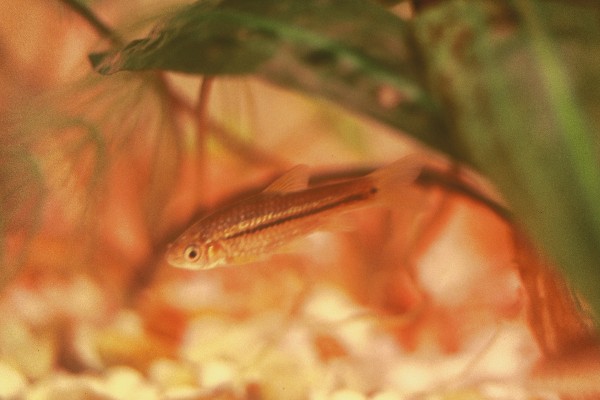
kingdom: Animalia
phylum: Chordata
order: Cypriniformes
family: Cyprinidae
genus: Enteromius
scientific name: Enteromius brevidorsalis
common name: Dwarf barb
